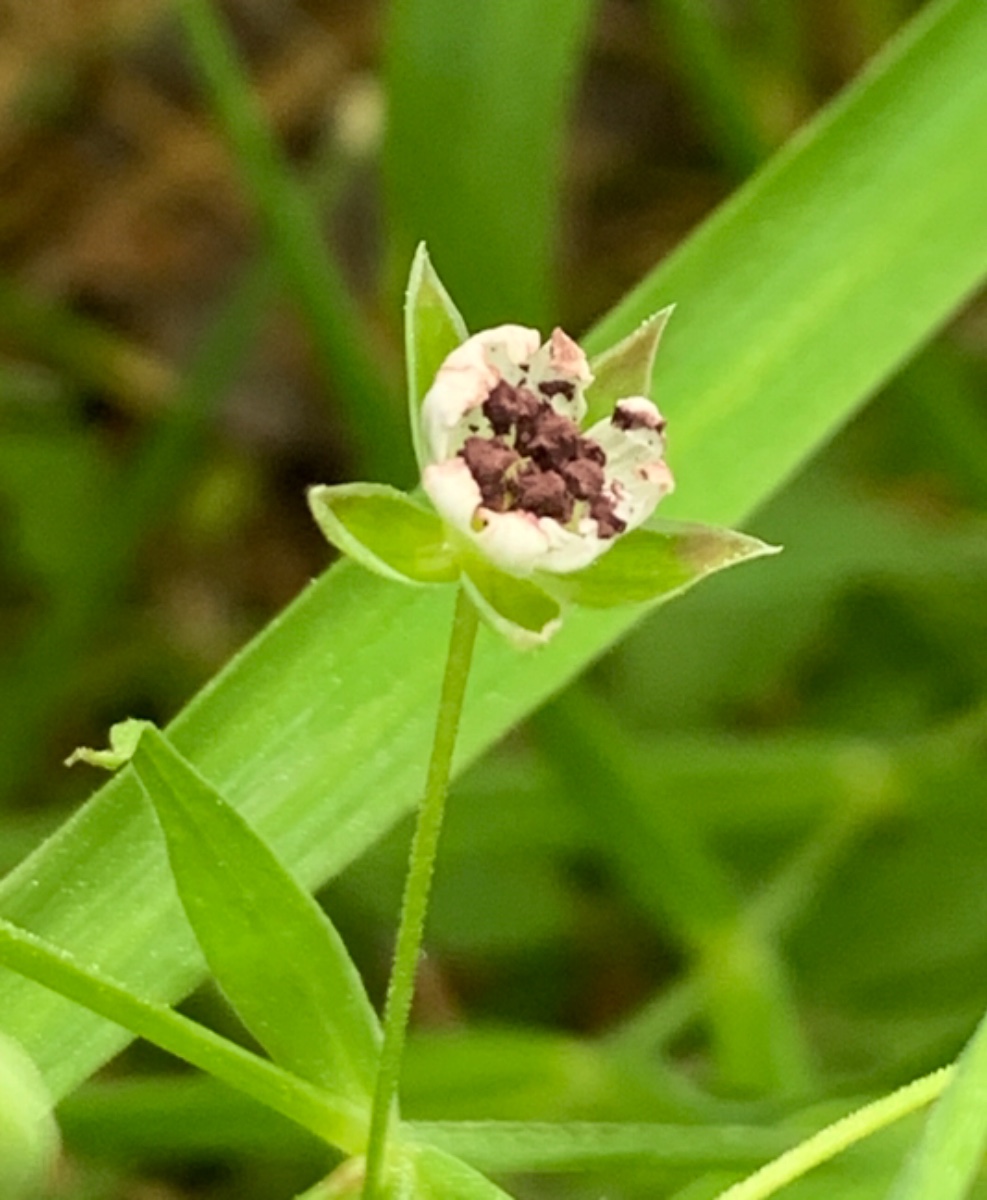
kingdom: Fungi
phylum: Basidiomycota
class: Microbotryomycetes
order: Microbotryales
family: Microbotryaceae
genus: Microbotryum
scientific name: Microbotryum stellariae
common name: fladstjerne-støvbladrust
